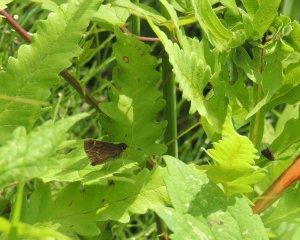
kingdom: Animalia
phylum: Arthropoda
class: Insecta
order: Lepidoptera
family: Hesperiidae
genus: Vernia
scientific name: Vernia verna
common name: Little Glassywing
